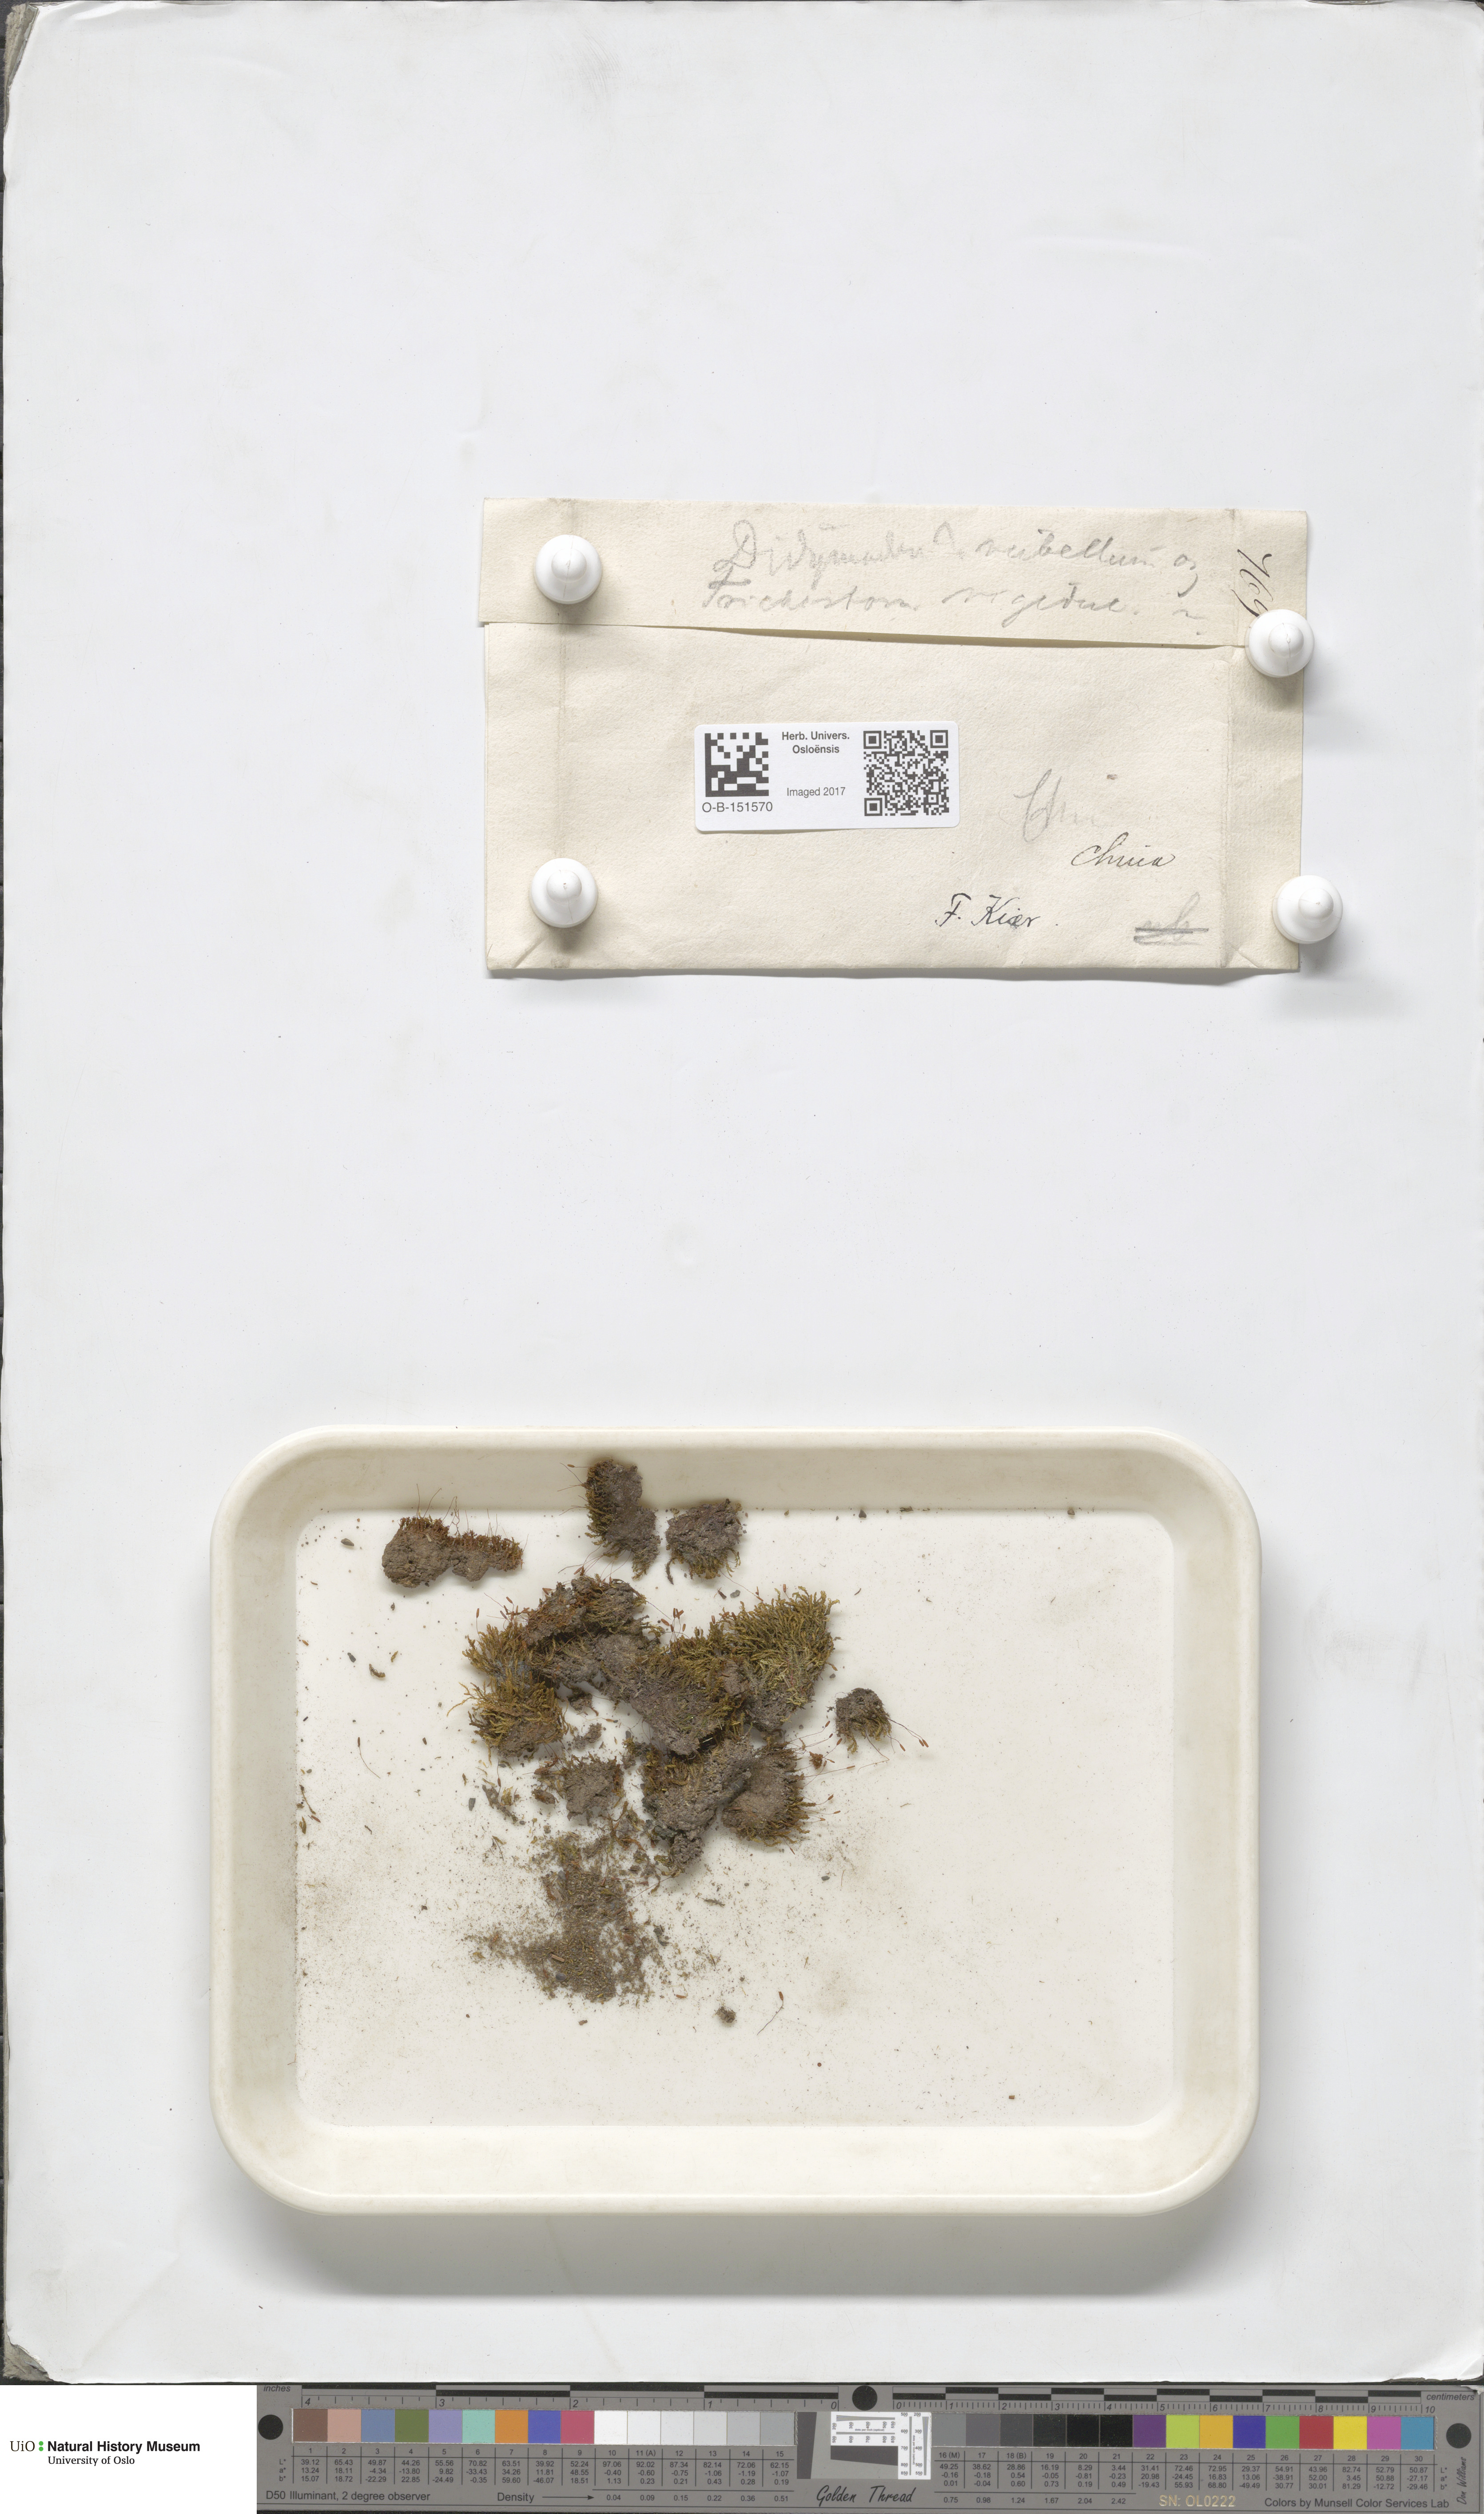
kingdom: Plantae
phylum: Bryophyta
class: Bryopsida
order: Pottiales
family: Pottiaceae
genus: Bryoerythrophyllum
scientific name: Bryoerythrophyllum recurvirostrum
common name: Red beard moss
